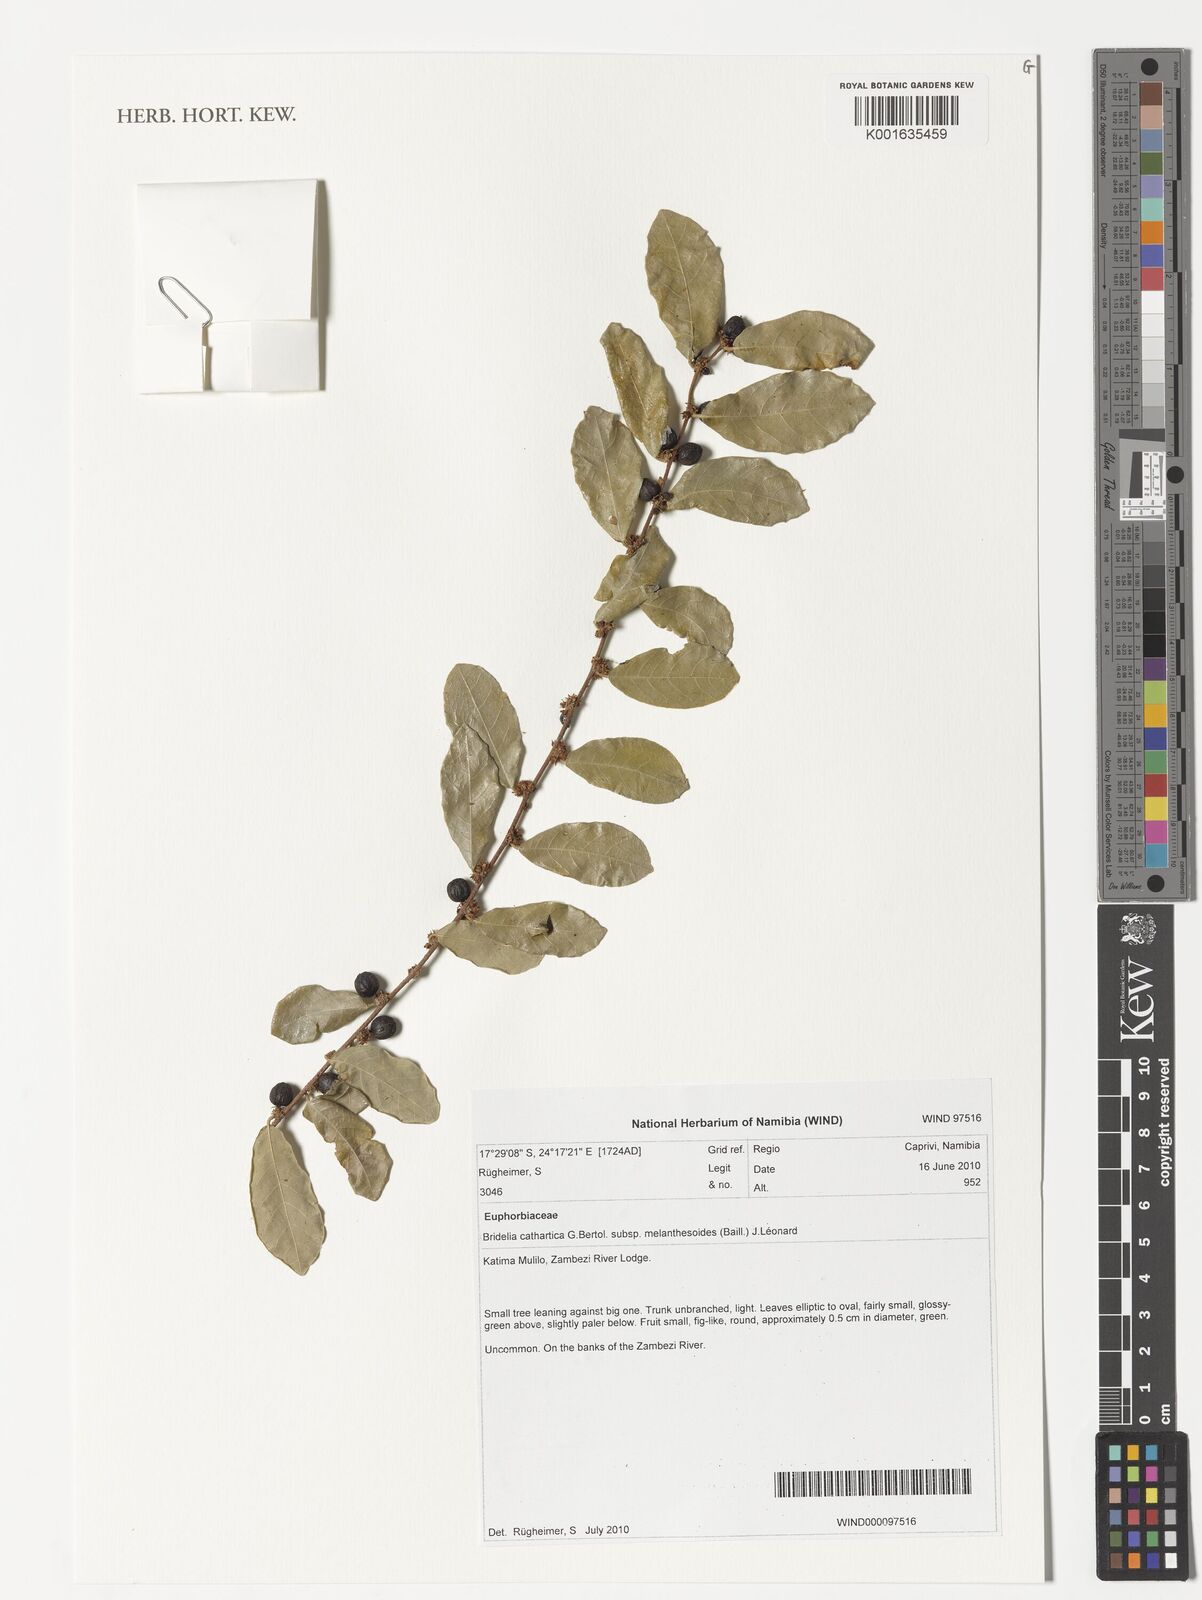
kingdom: Plantae
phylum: Tracheophyta
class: Magnoliopsida
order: Malpighiales
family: Phyllanthaceae
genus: Bridelia
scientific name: Bridelia cathartica
